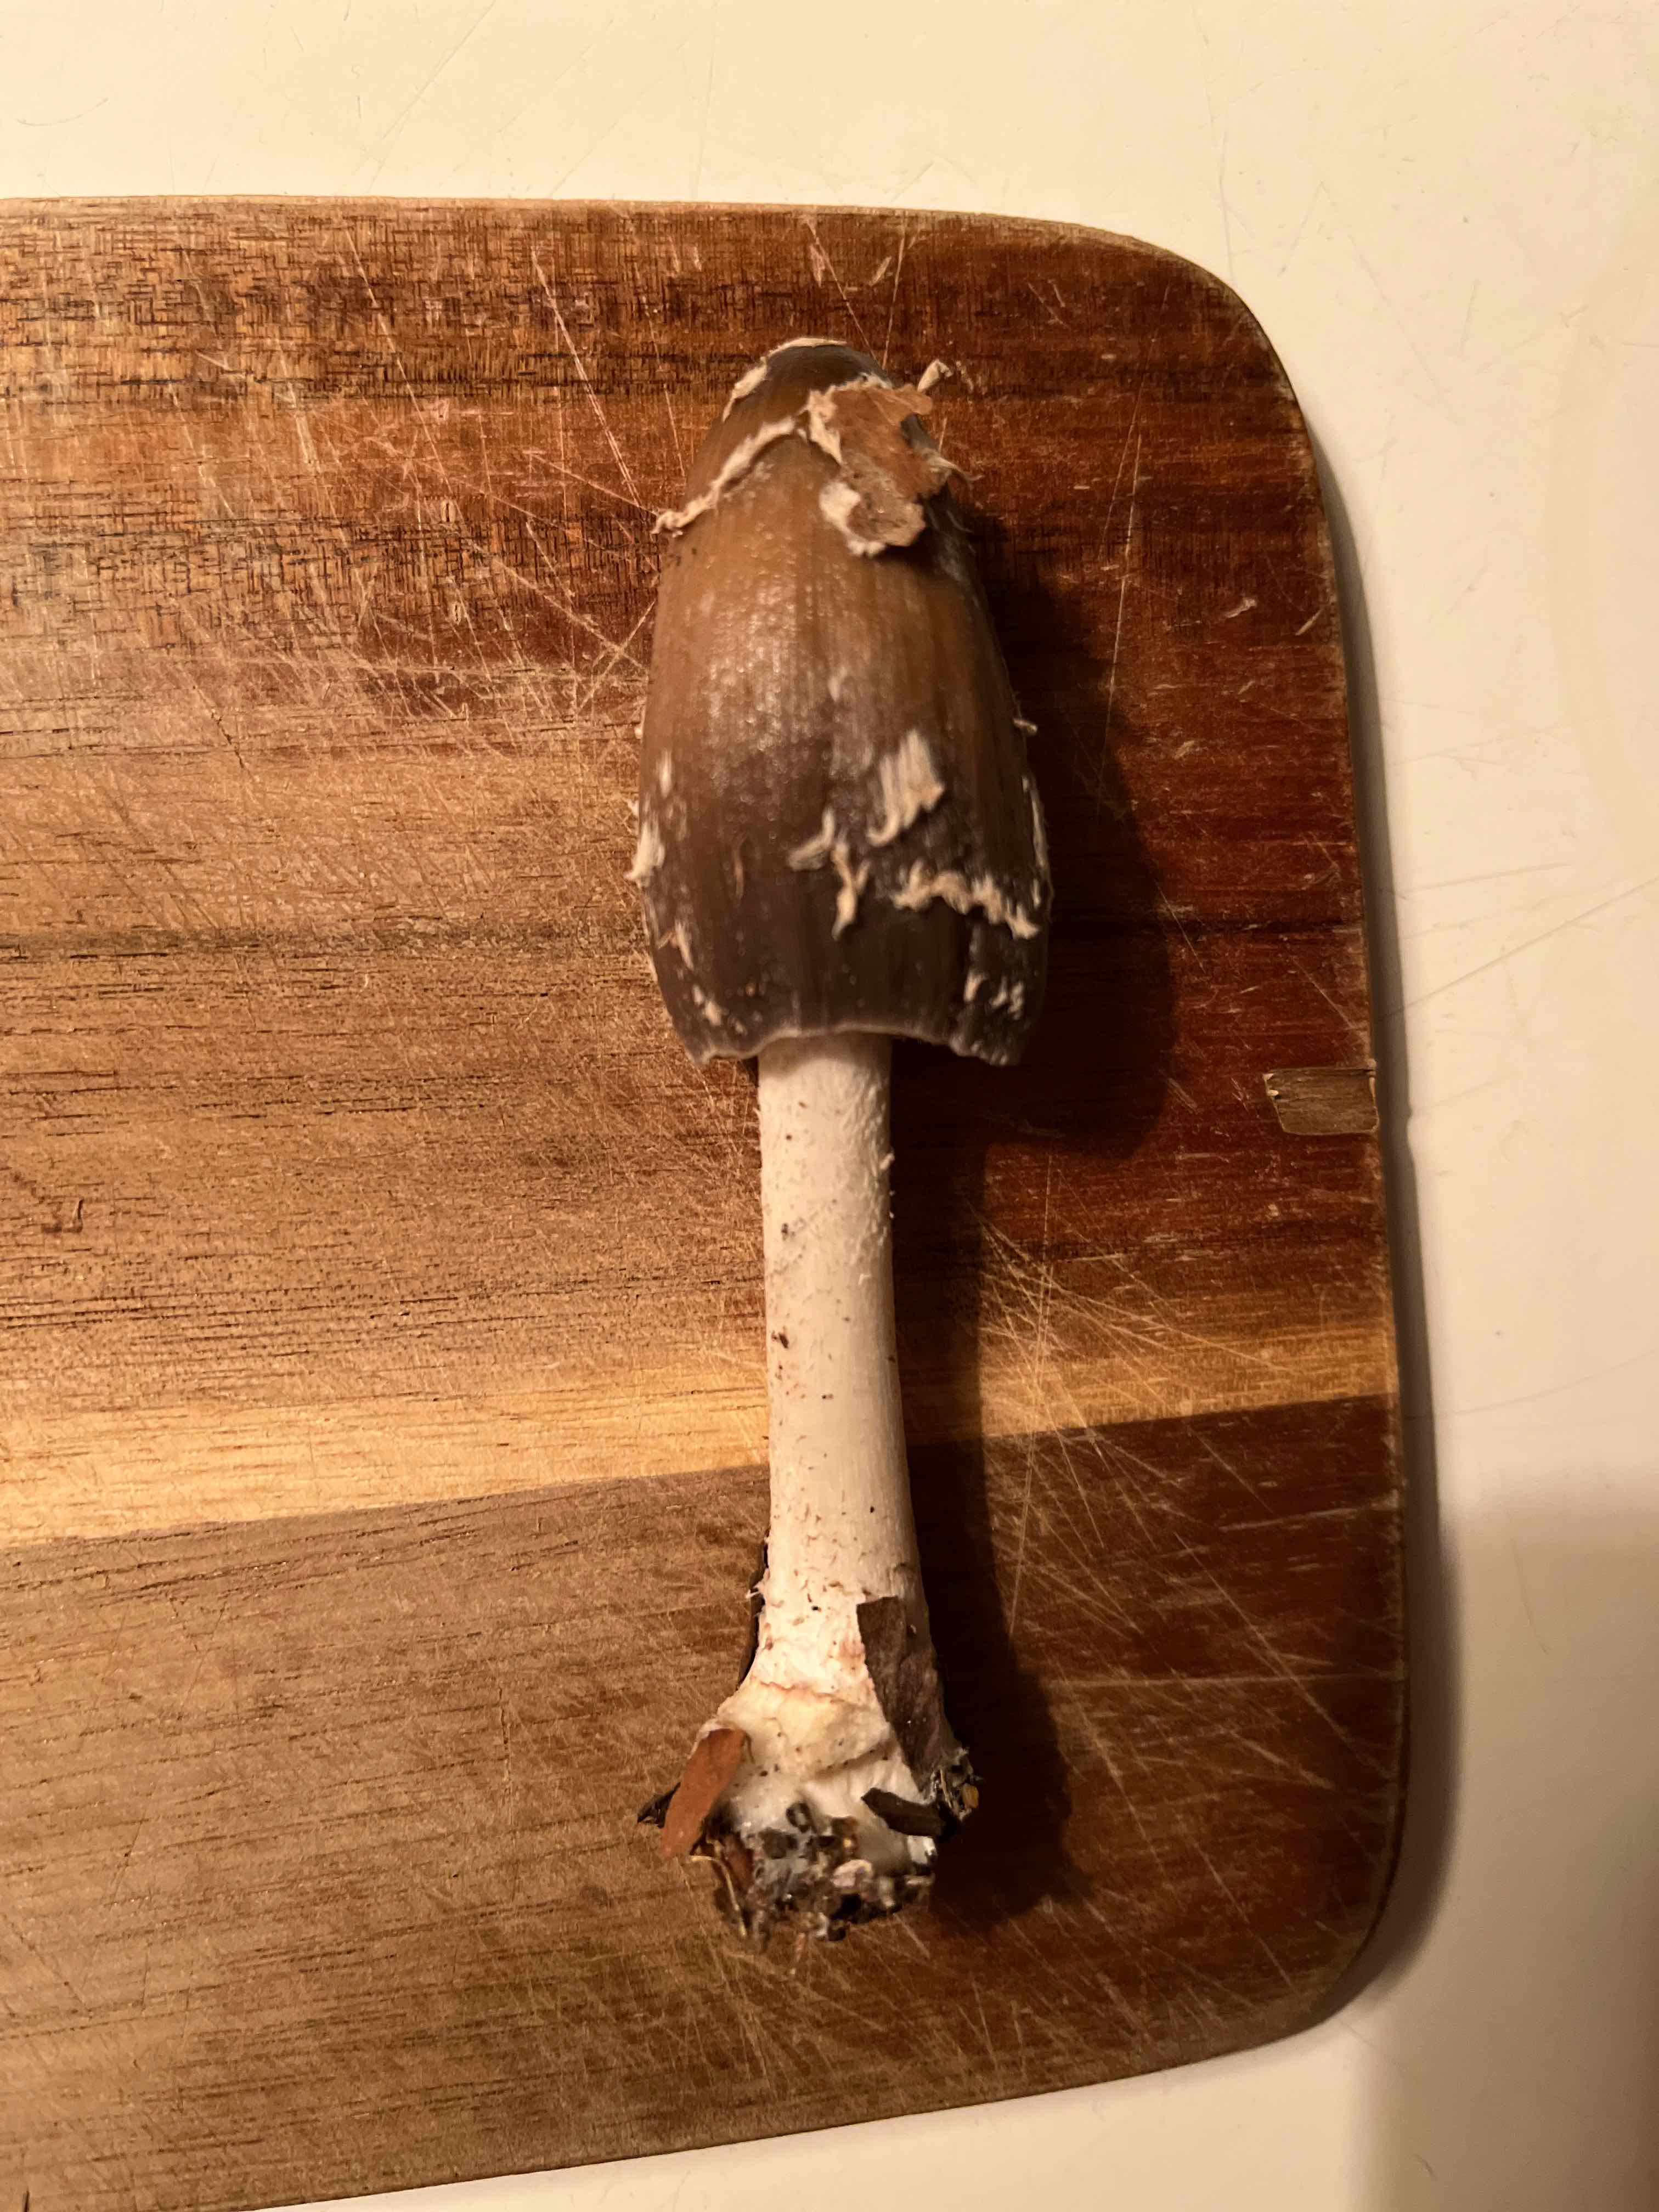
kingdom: Fungi
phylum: Basidiomycota
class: Agaricomycetes
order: Agaricales
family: Psathyrellaceae
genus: Coprinopsis
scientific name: Coprinopsis picacea
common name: skade-blækhat
